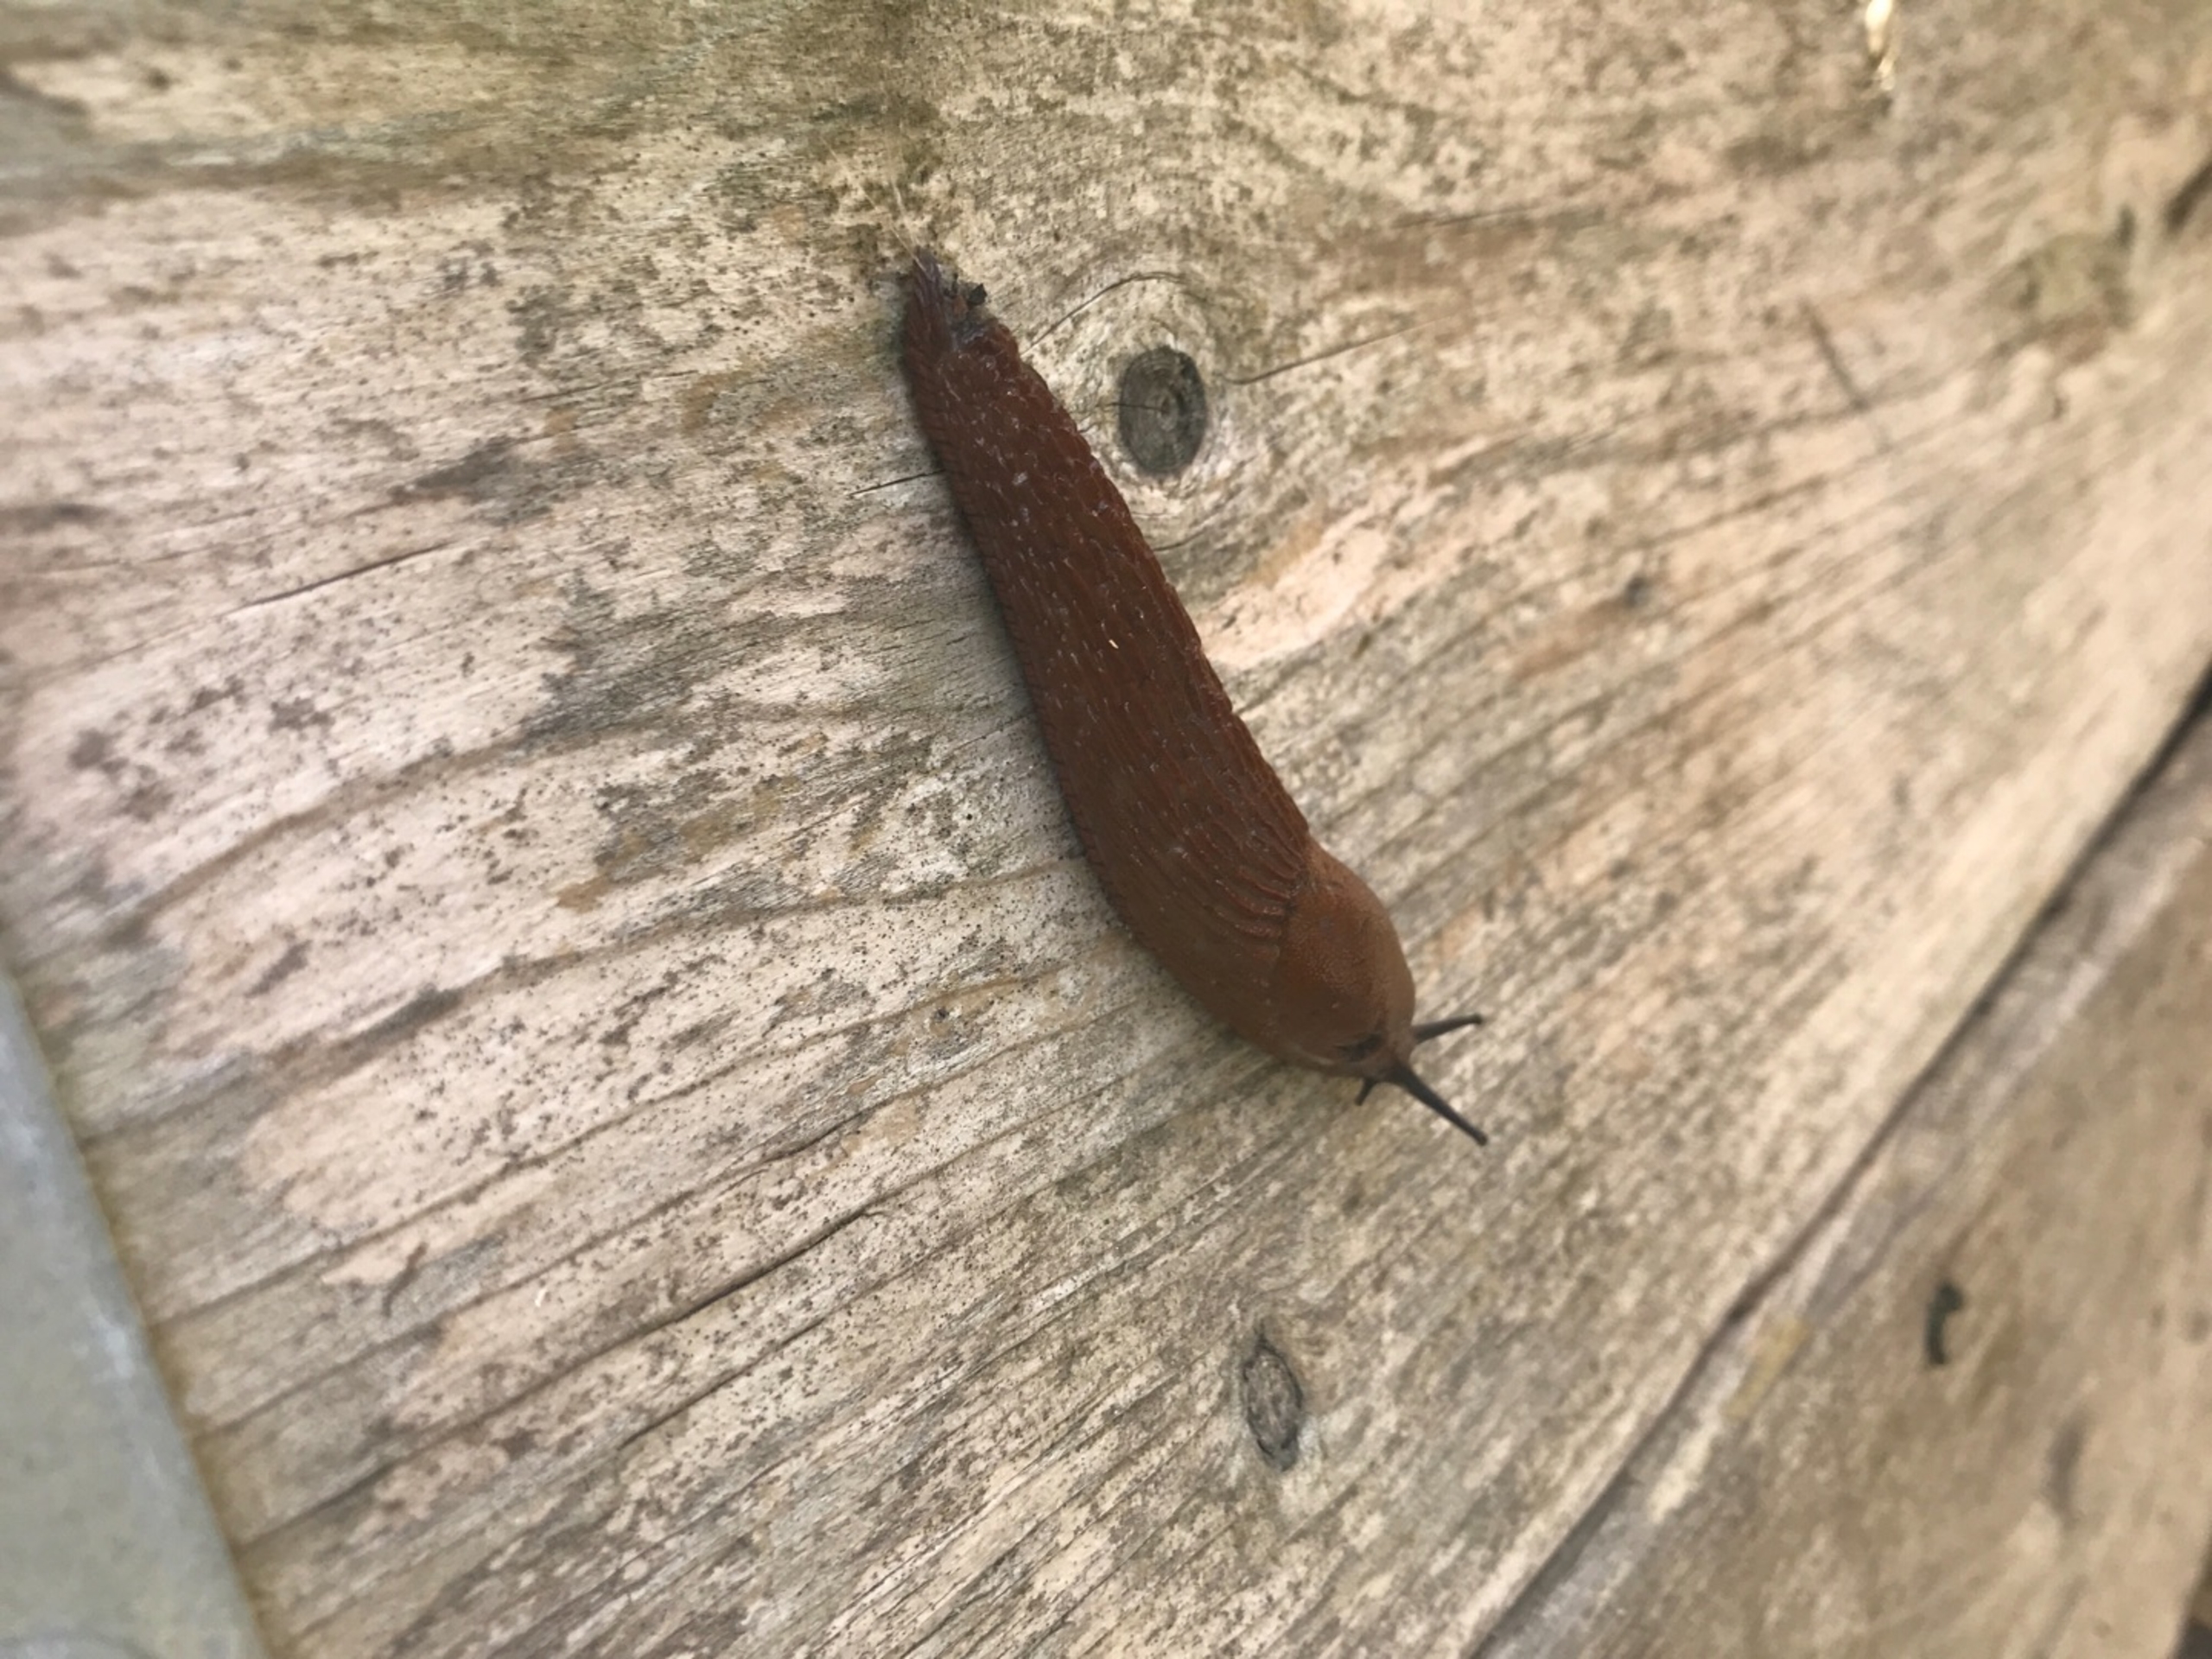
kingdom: Animalia
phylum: Mollusca
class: Gastropoda
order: Stylommatophora
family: Arionidae
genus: Arion
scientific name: Arion vulgaris
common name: Iberisk skovsnegl
